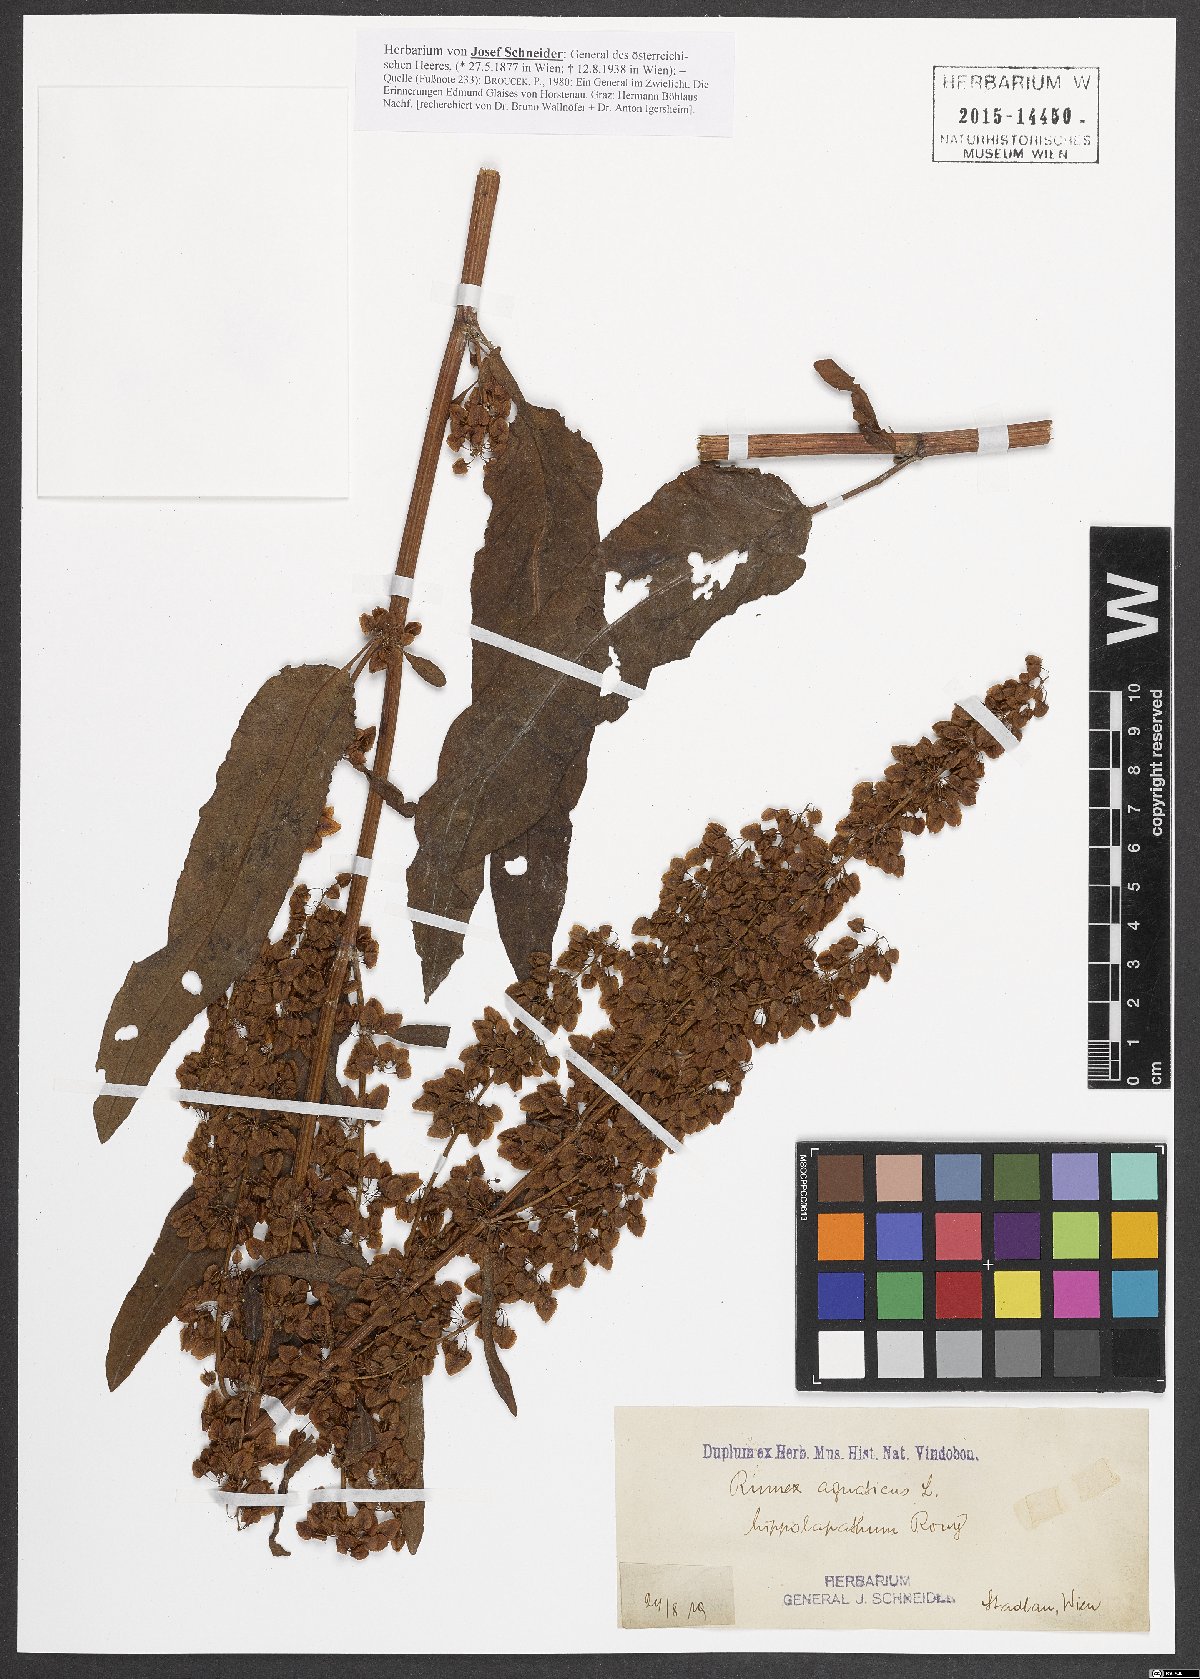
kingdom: Plantae
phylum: Tracheophyta
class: Magnoliopsida
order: Caryophyllales
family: Polygonaceae
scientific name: Polygonaceae
